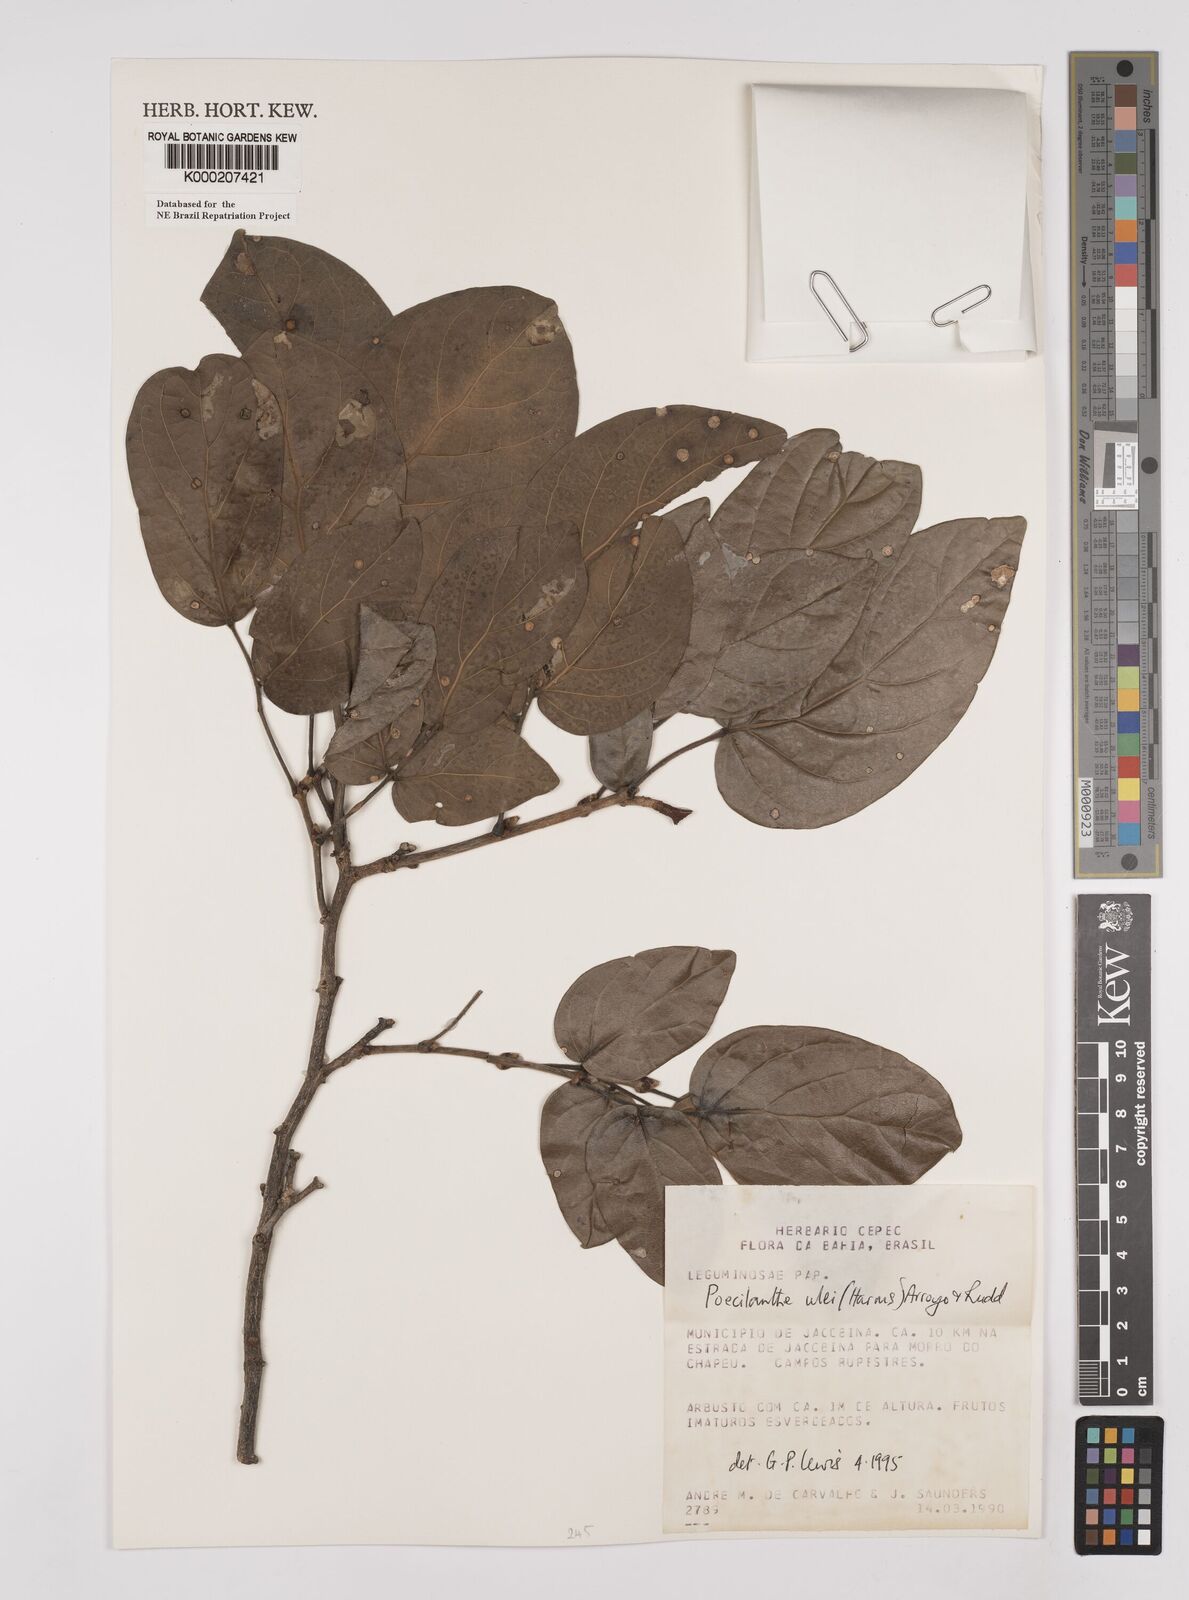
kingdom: Plantae
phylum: Tracheophyta
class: Magnoliopsida
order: Fabales
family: Fabaceae
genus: Poecilanthe
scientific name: Poecilanthe ulei
